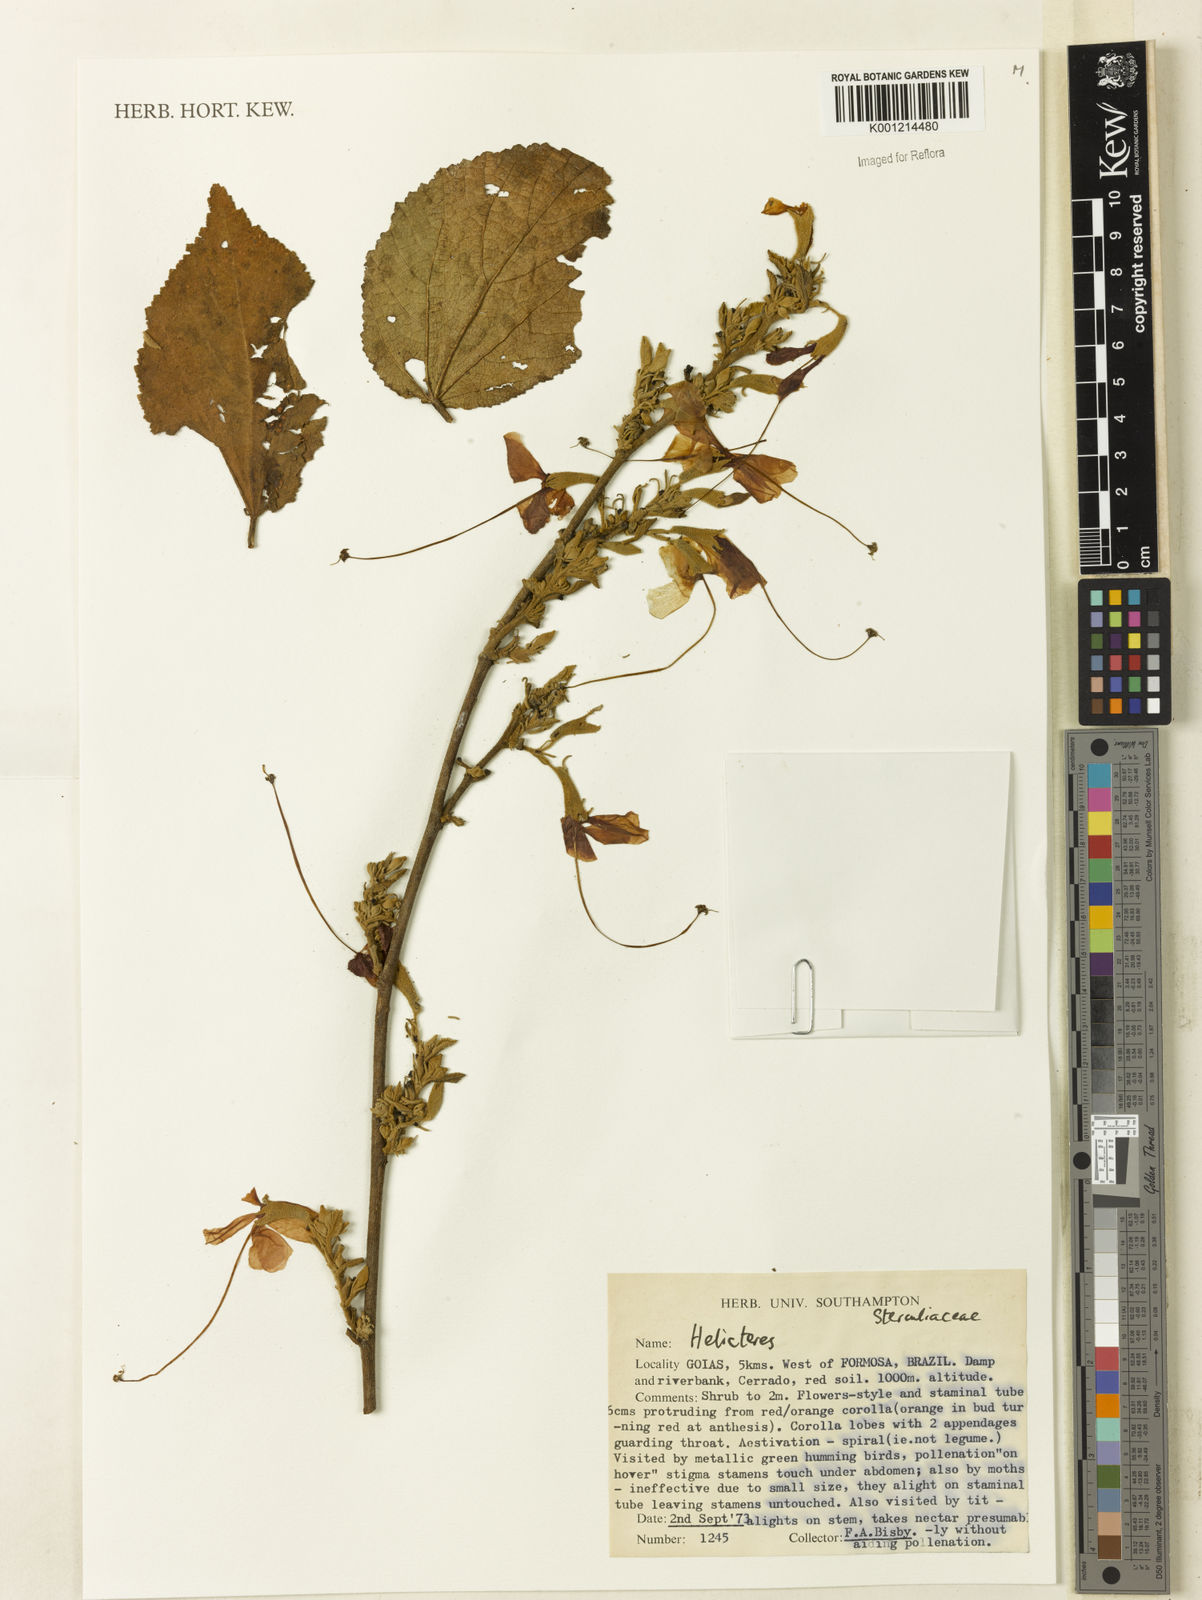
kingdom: Plantae
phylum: Tracheophyta
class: Magnoliopsida
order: Malvales
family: Malvaceae
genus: Helicteres
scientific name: Helicteres
